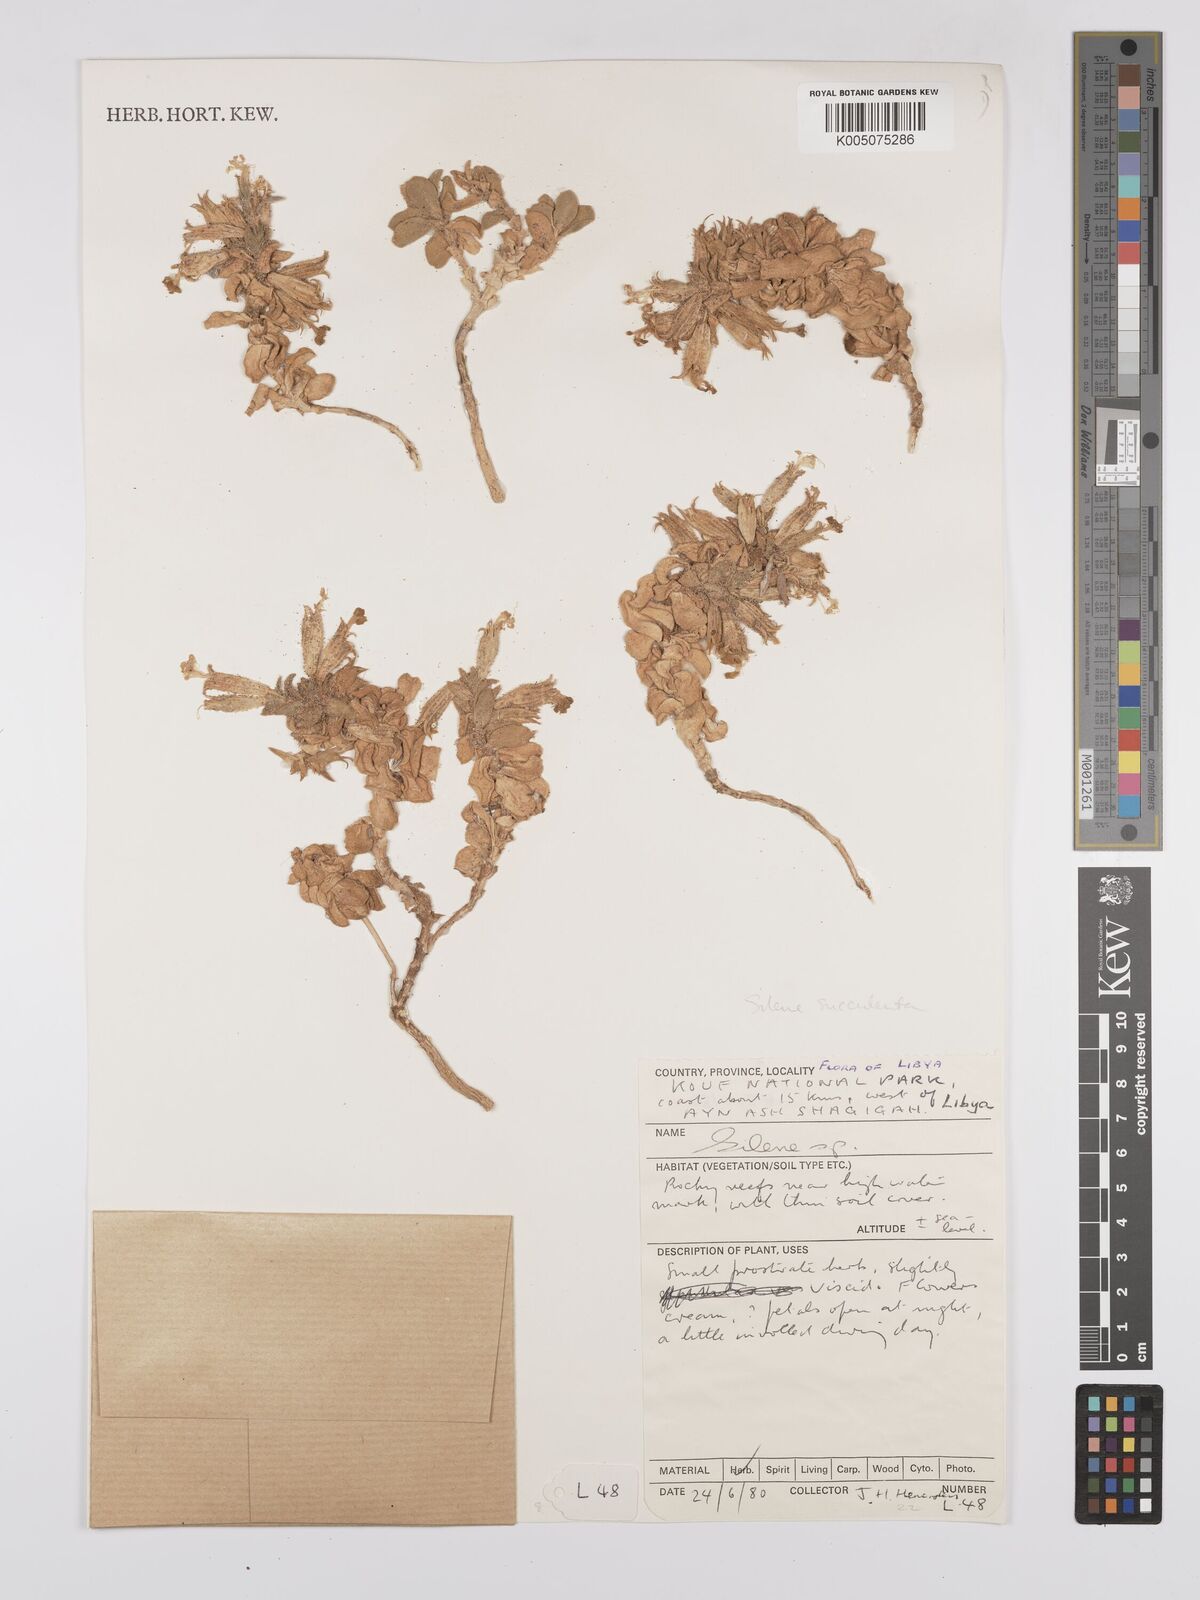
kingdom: Plantae
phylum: Tracheophyta
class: Magnoliopsida
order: Caryophyllales
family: Caryophyllaceae
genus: Silene
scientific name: Silene succulenta
